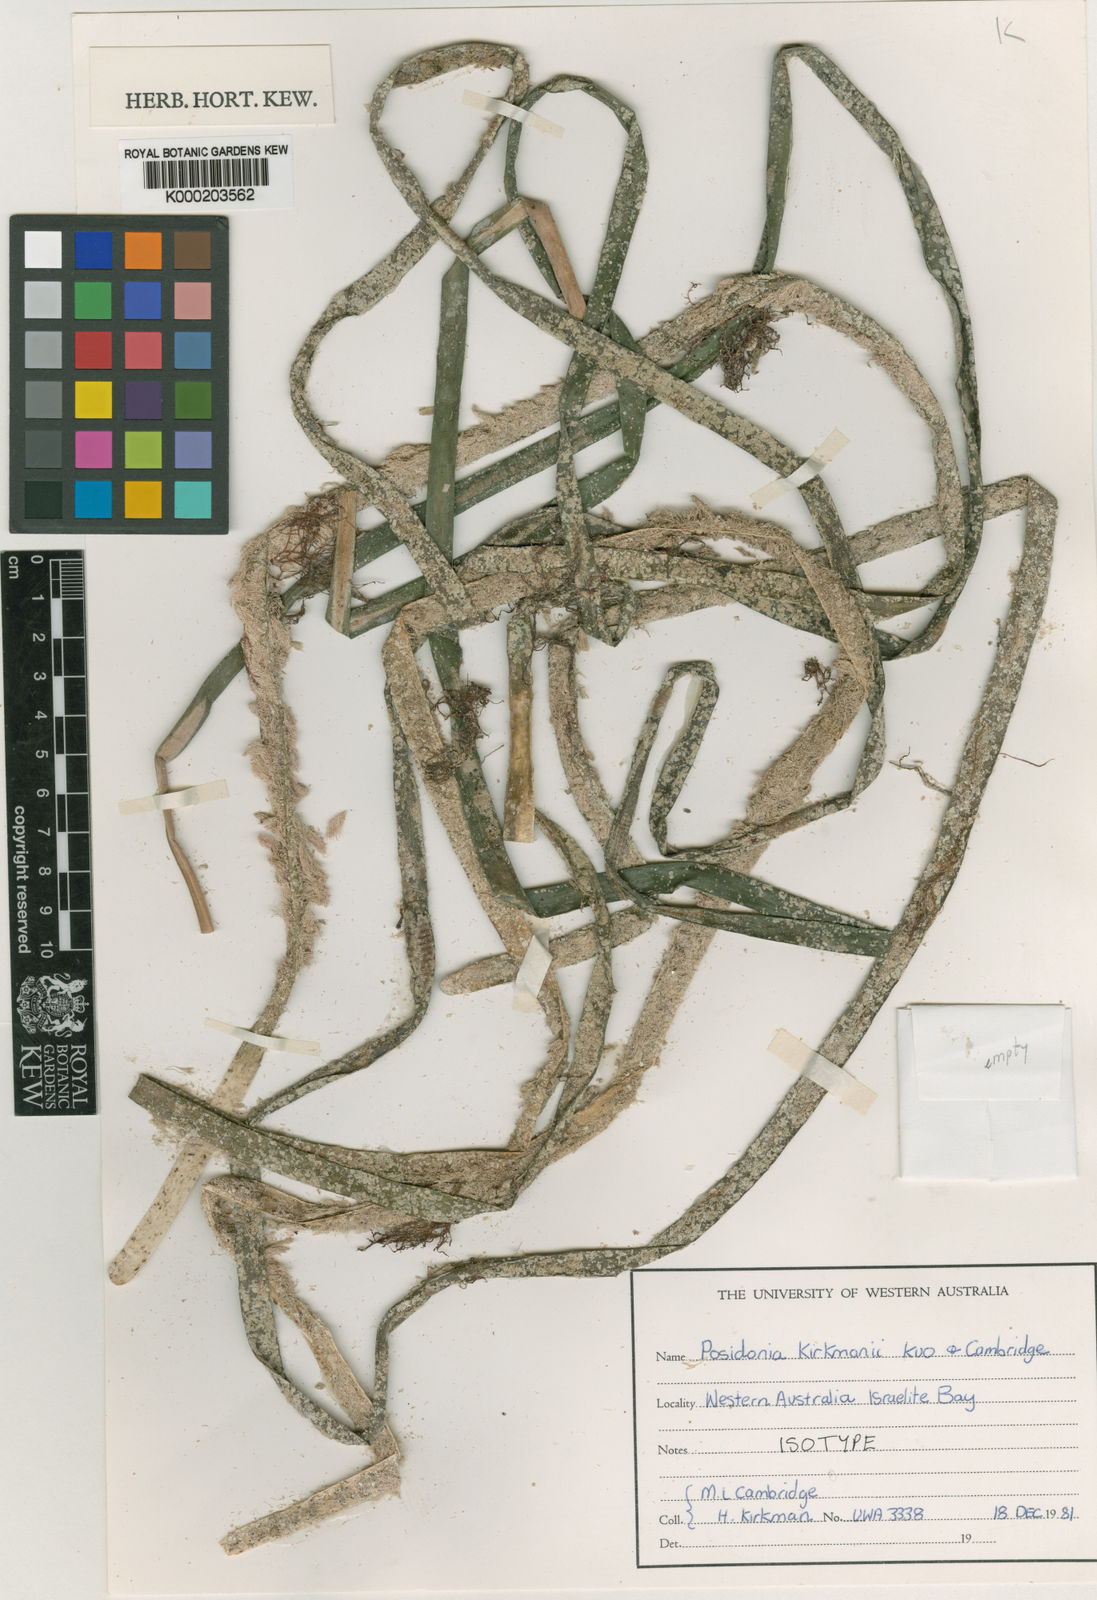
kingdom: Plantae
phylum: Tracheophyta
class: Liliopsida
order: Alismatales
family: Posidoniaceae
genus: Posidonia
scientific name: Posidonia kirkmanii
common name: Species code: pk
